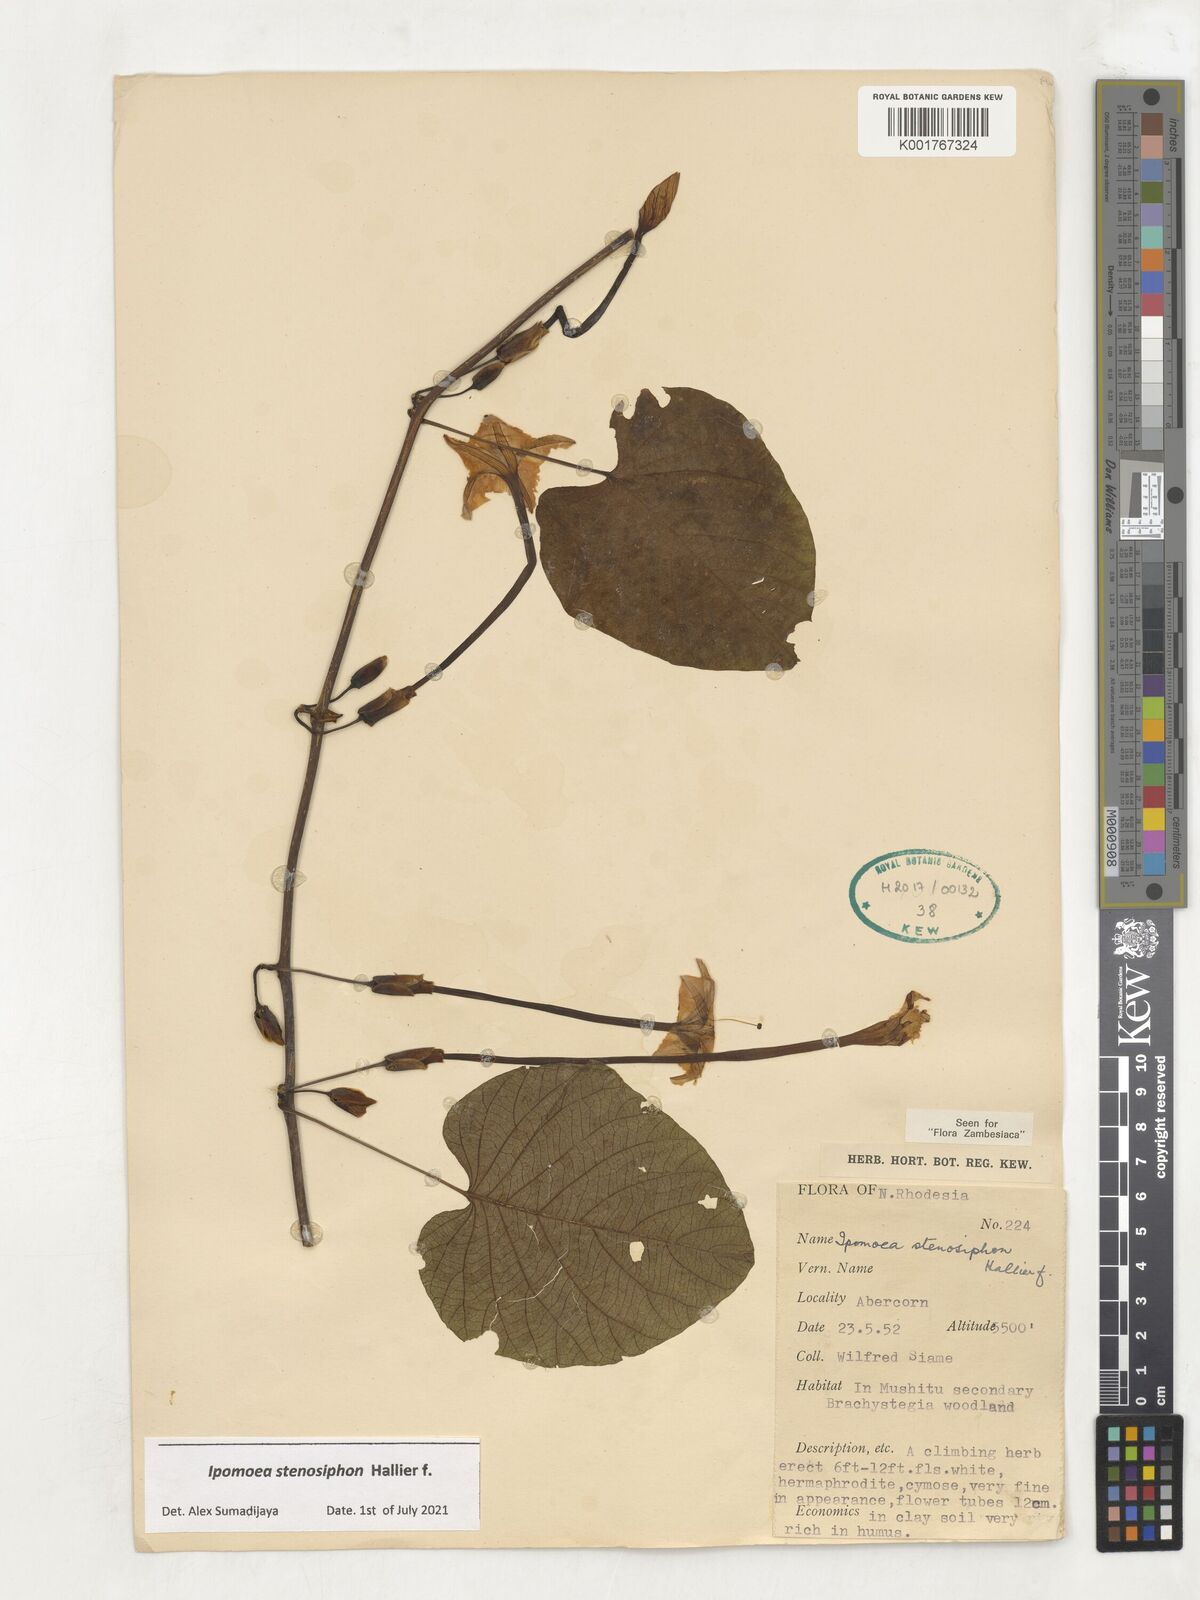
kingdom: Plantae
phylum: Tracheophyta
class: Magnoliopsida
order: Solanales
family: Convolvulaceae
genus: Ipomoea
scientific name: Ipomoea stenosiphon
